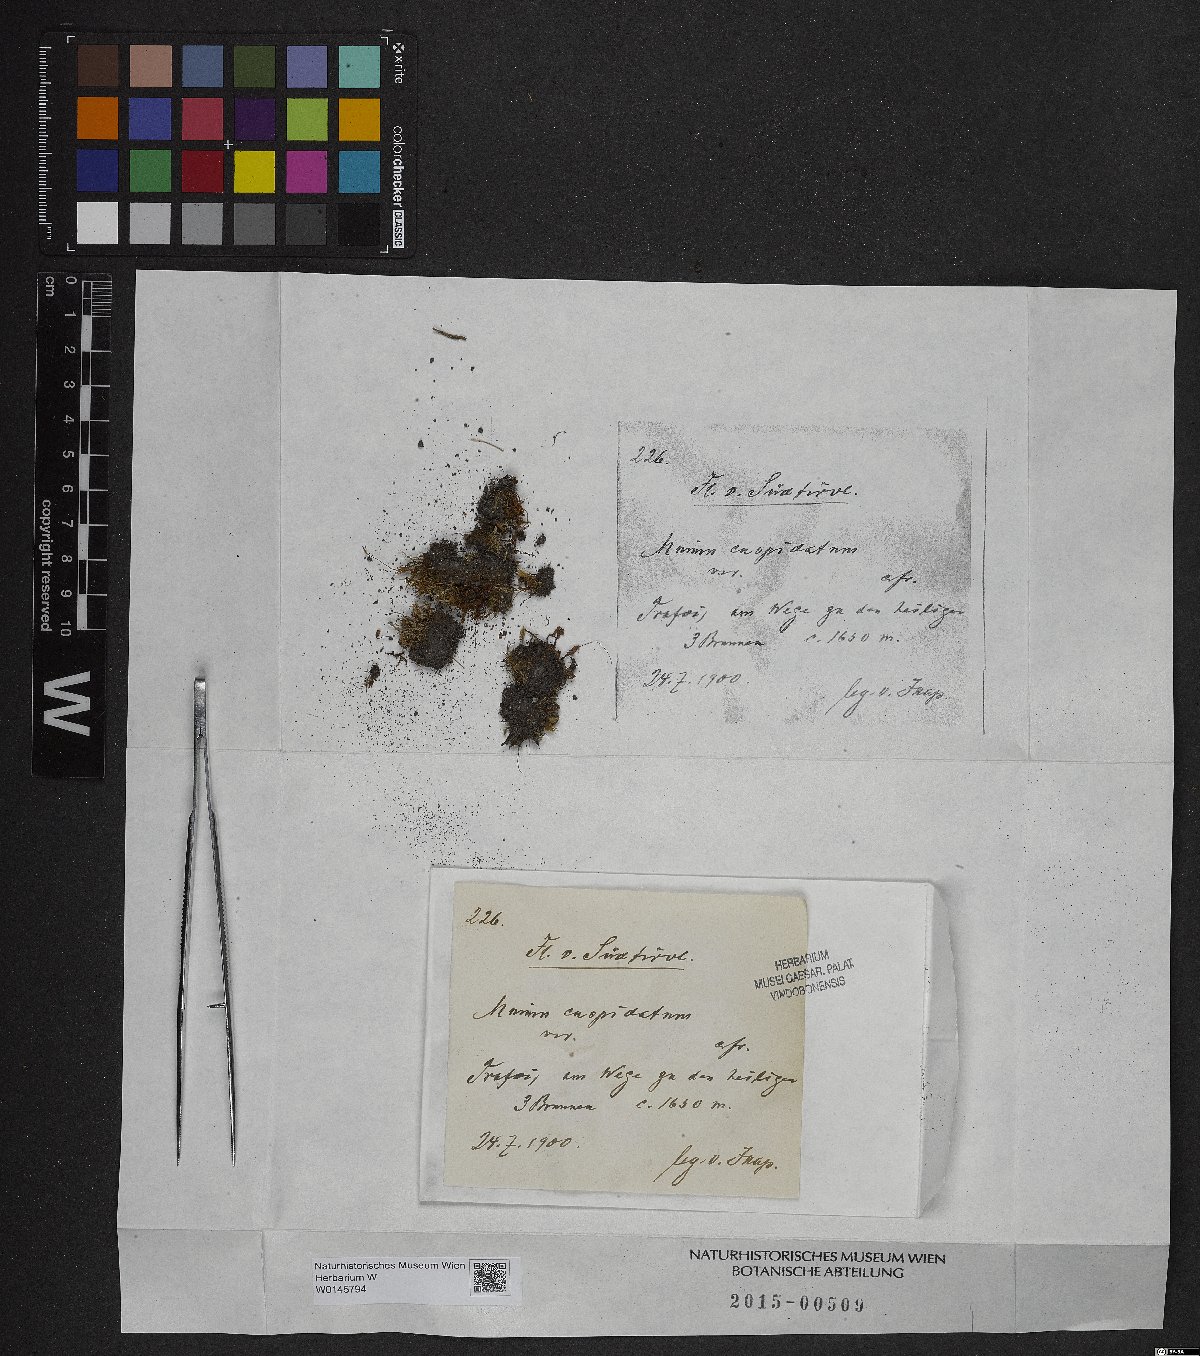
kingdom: Plantae
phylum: Bryophyta
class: Bryopsida
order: Bryales
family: Mniaceae
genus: Plagiomnium
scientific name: Plagiomnium cuspidatum
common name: Woodsy leafy moss
